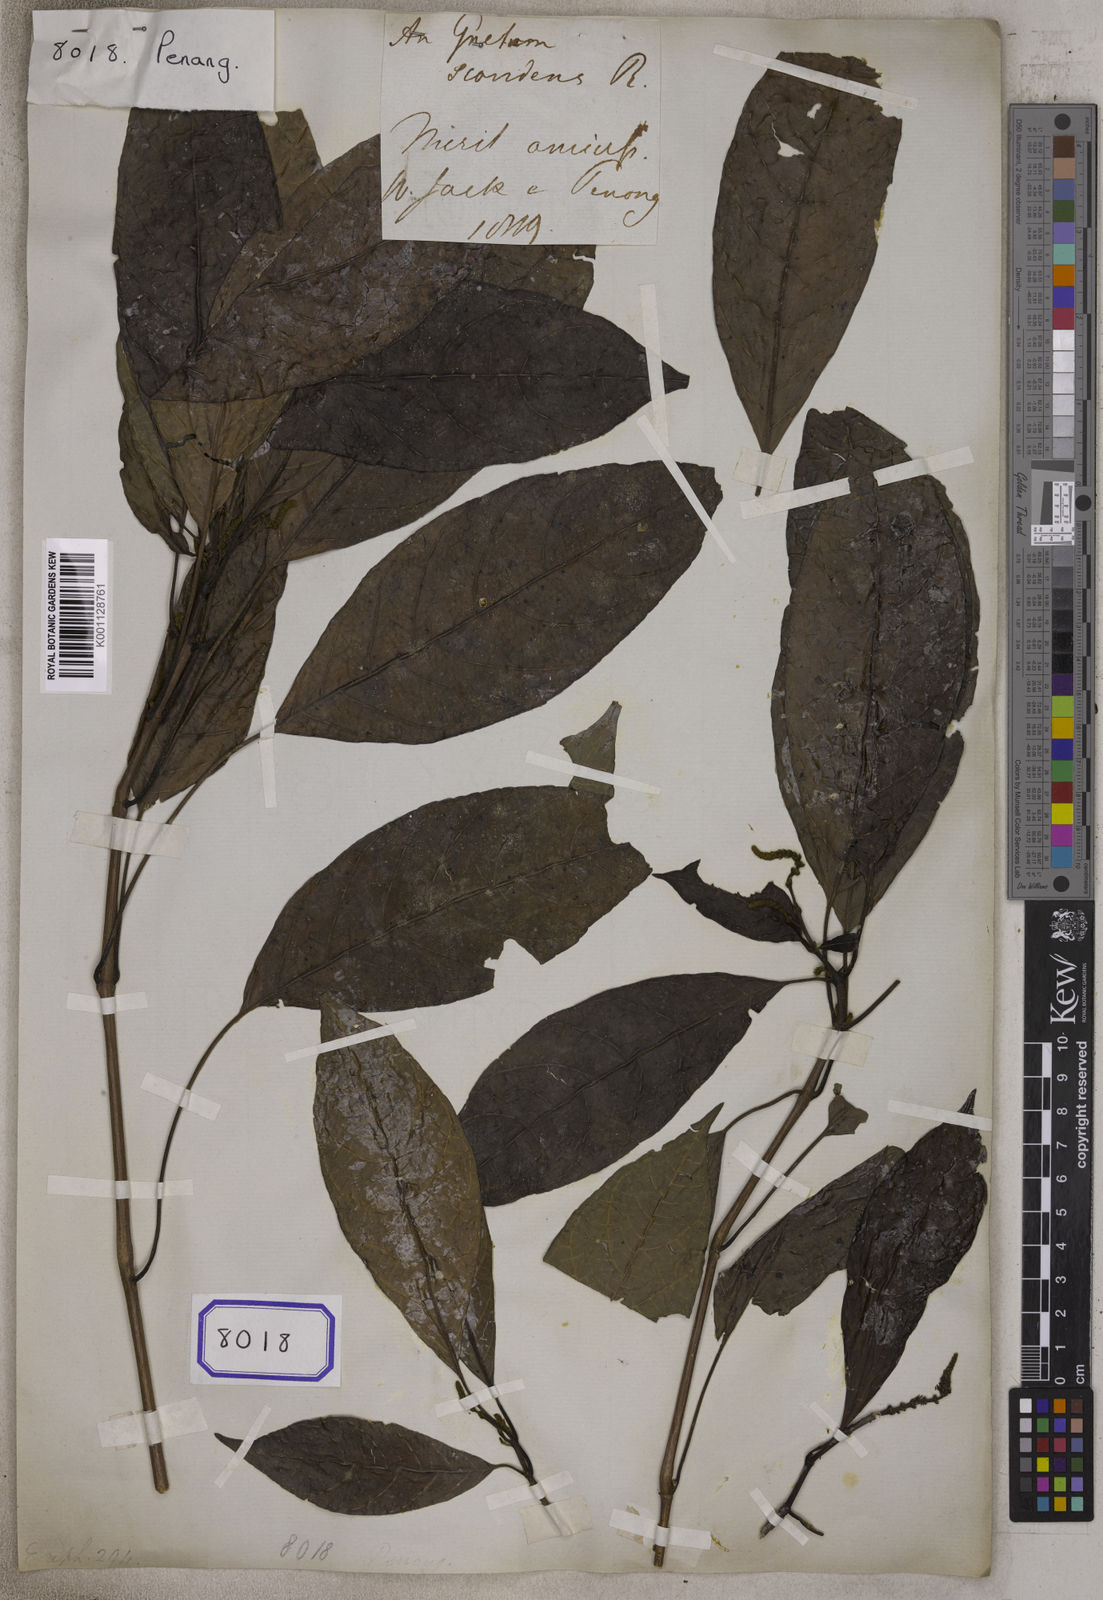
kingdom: Plantae
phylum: Tracheophyta
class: Magnoliopsida
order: Malpighiales
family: Euphorbiaceae
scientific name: Euphorbiaceae
